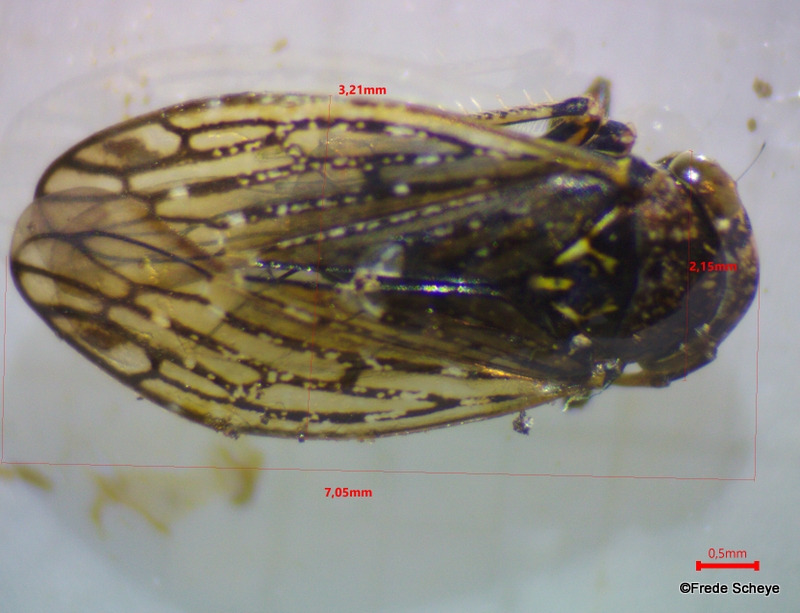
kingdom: Animalia
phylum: Arthropoda
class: Insecta
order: Hemiptera
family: Cicadellidae
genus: Acericerus
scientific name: Acericerus heydenii
